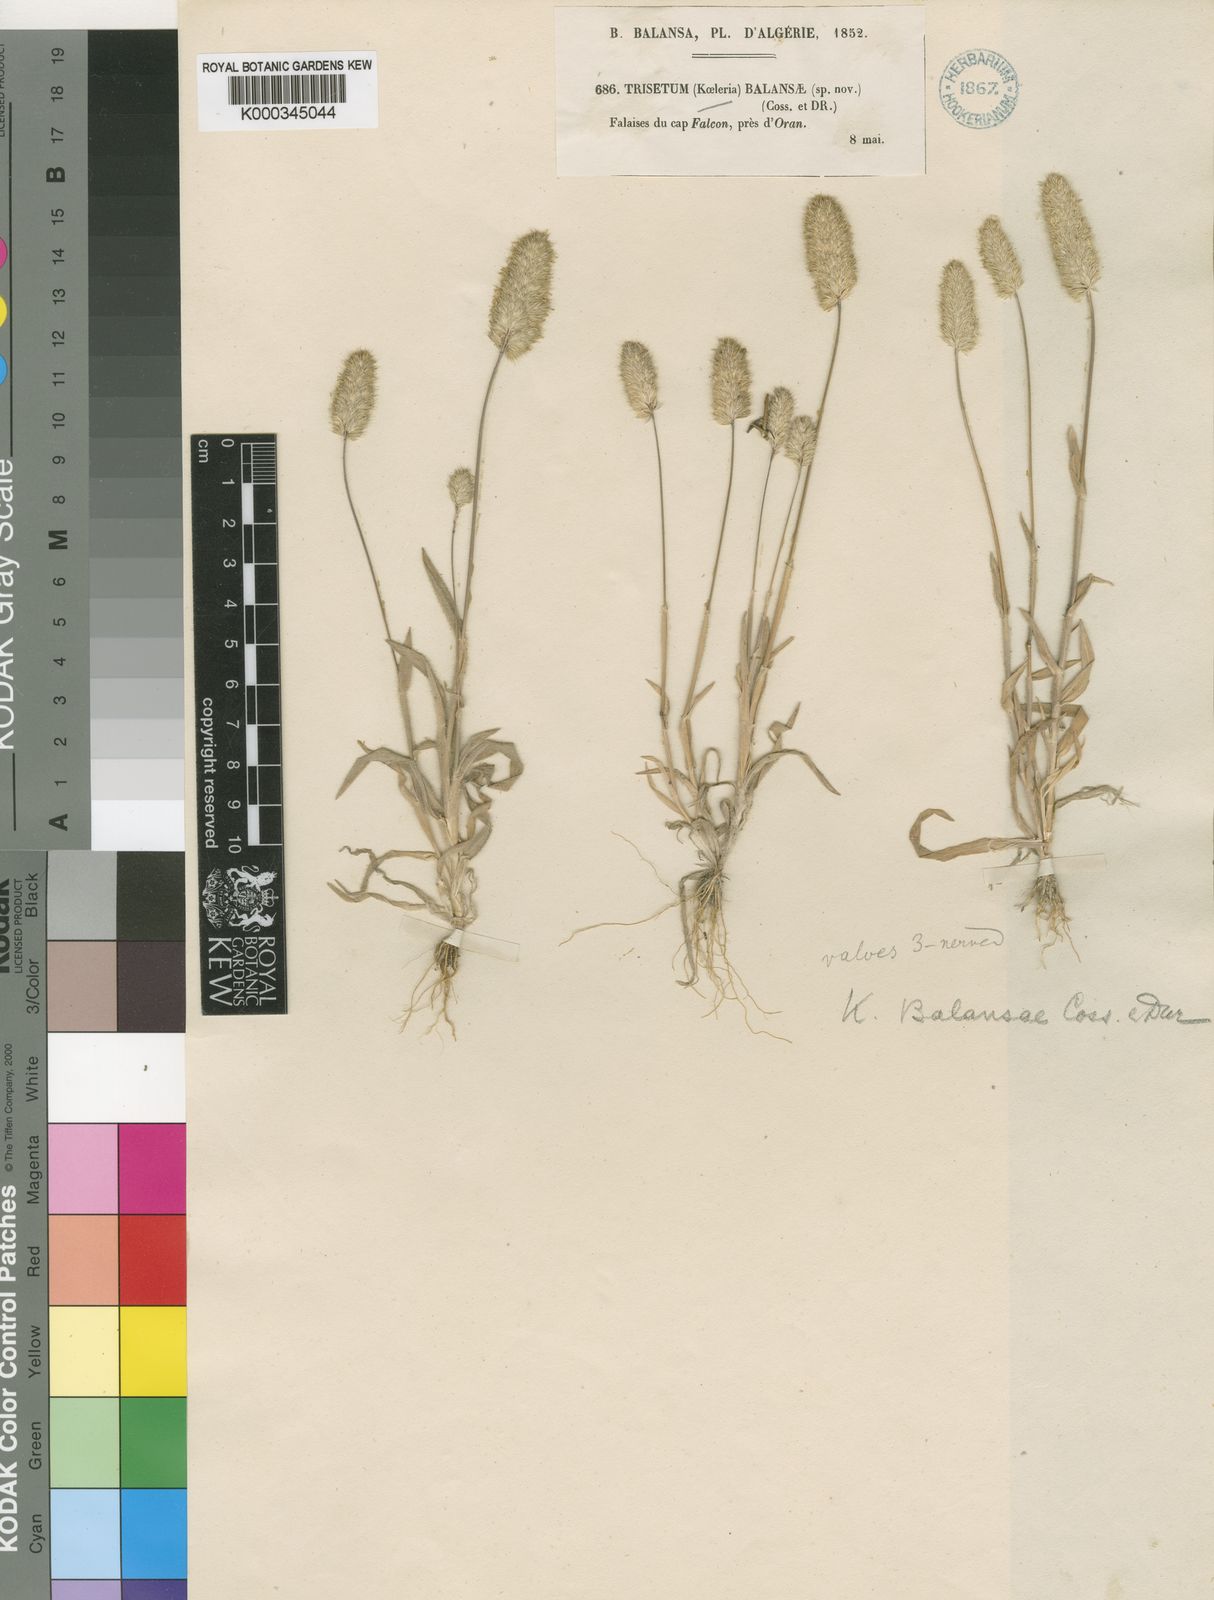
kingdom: Plantae
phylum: Tracheophyta
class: Liliopsida
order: Poales
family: Poaceae
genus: Rostraria
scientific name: Rostraria balansae
